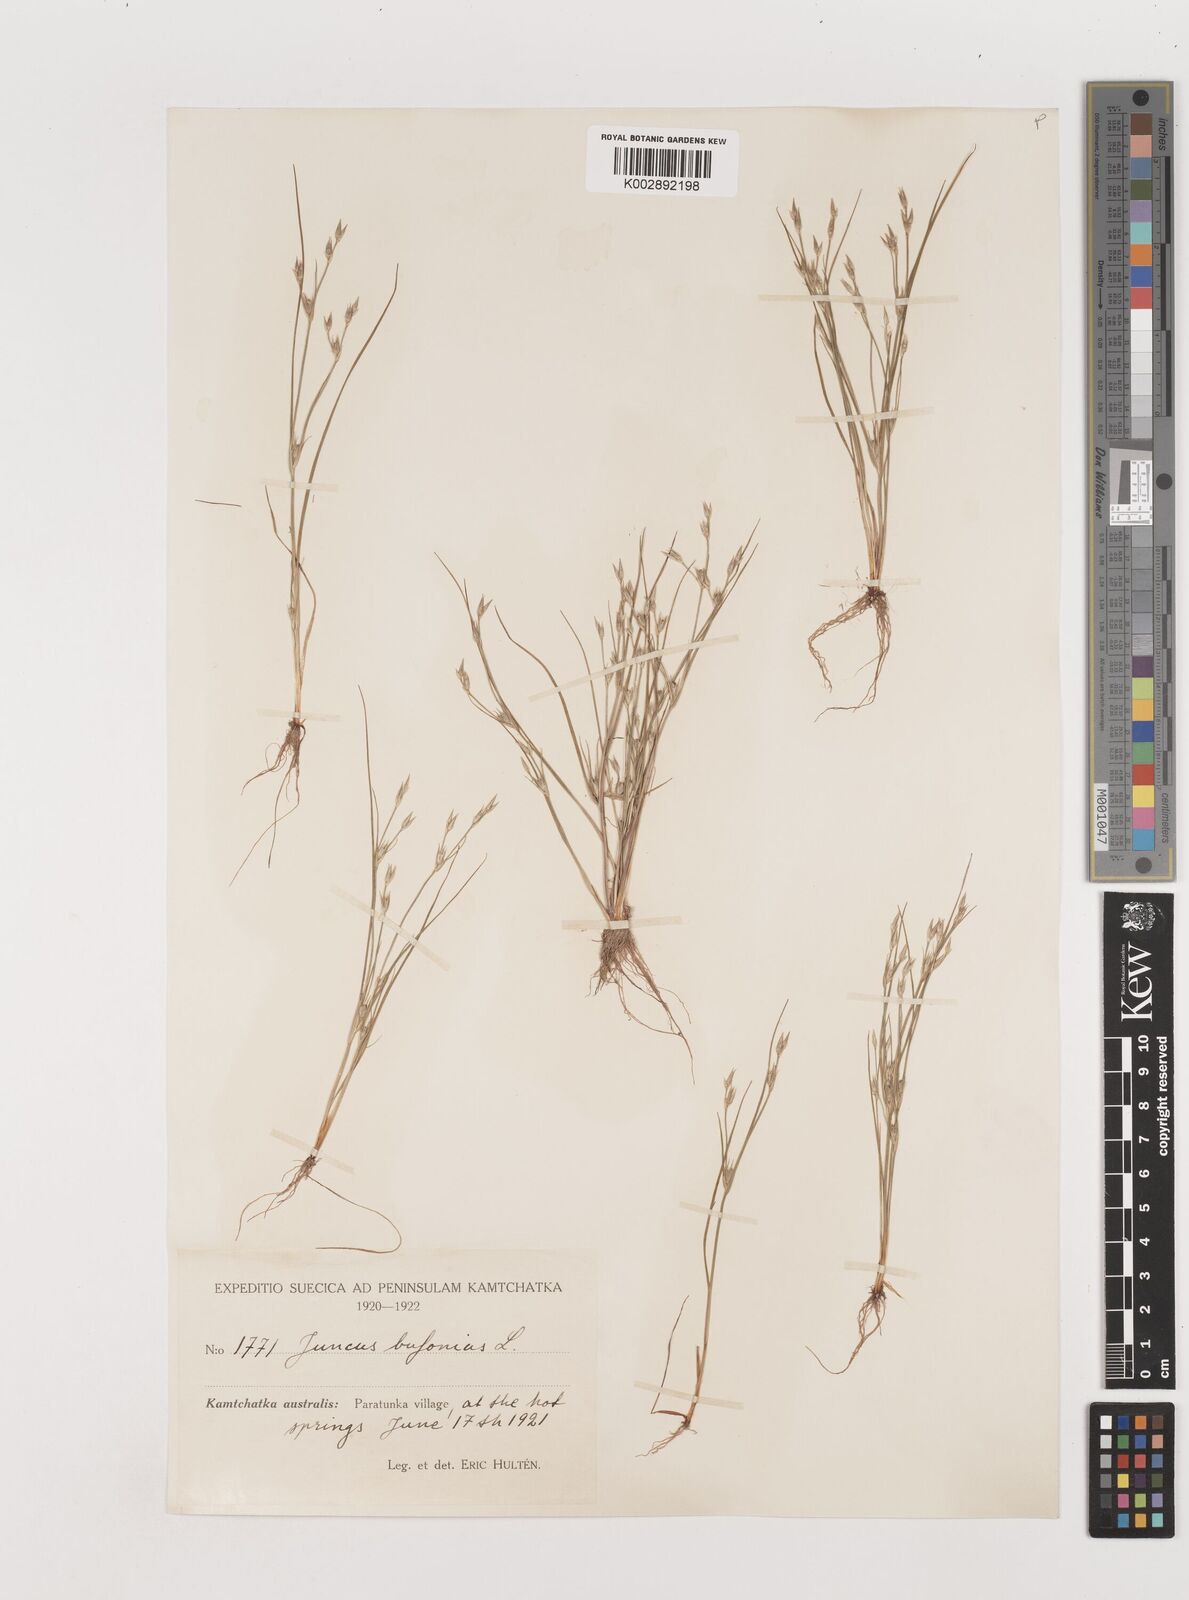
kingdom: Plantae
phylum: Tracheophyta
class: Liliopsida
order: Poales
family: Juncaceae
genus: Juncus
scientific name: Juncus bufonius
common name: Toad rush
